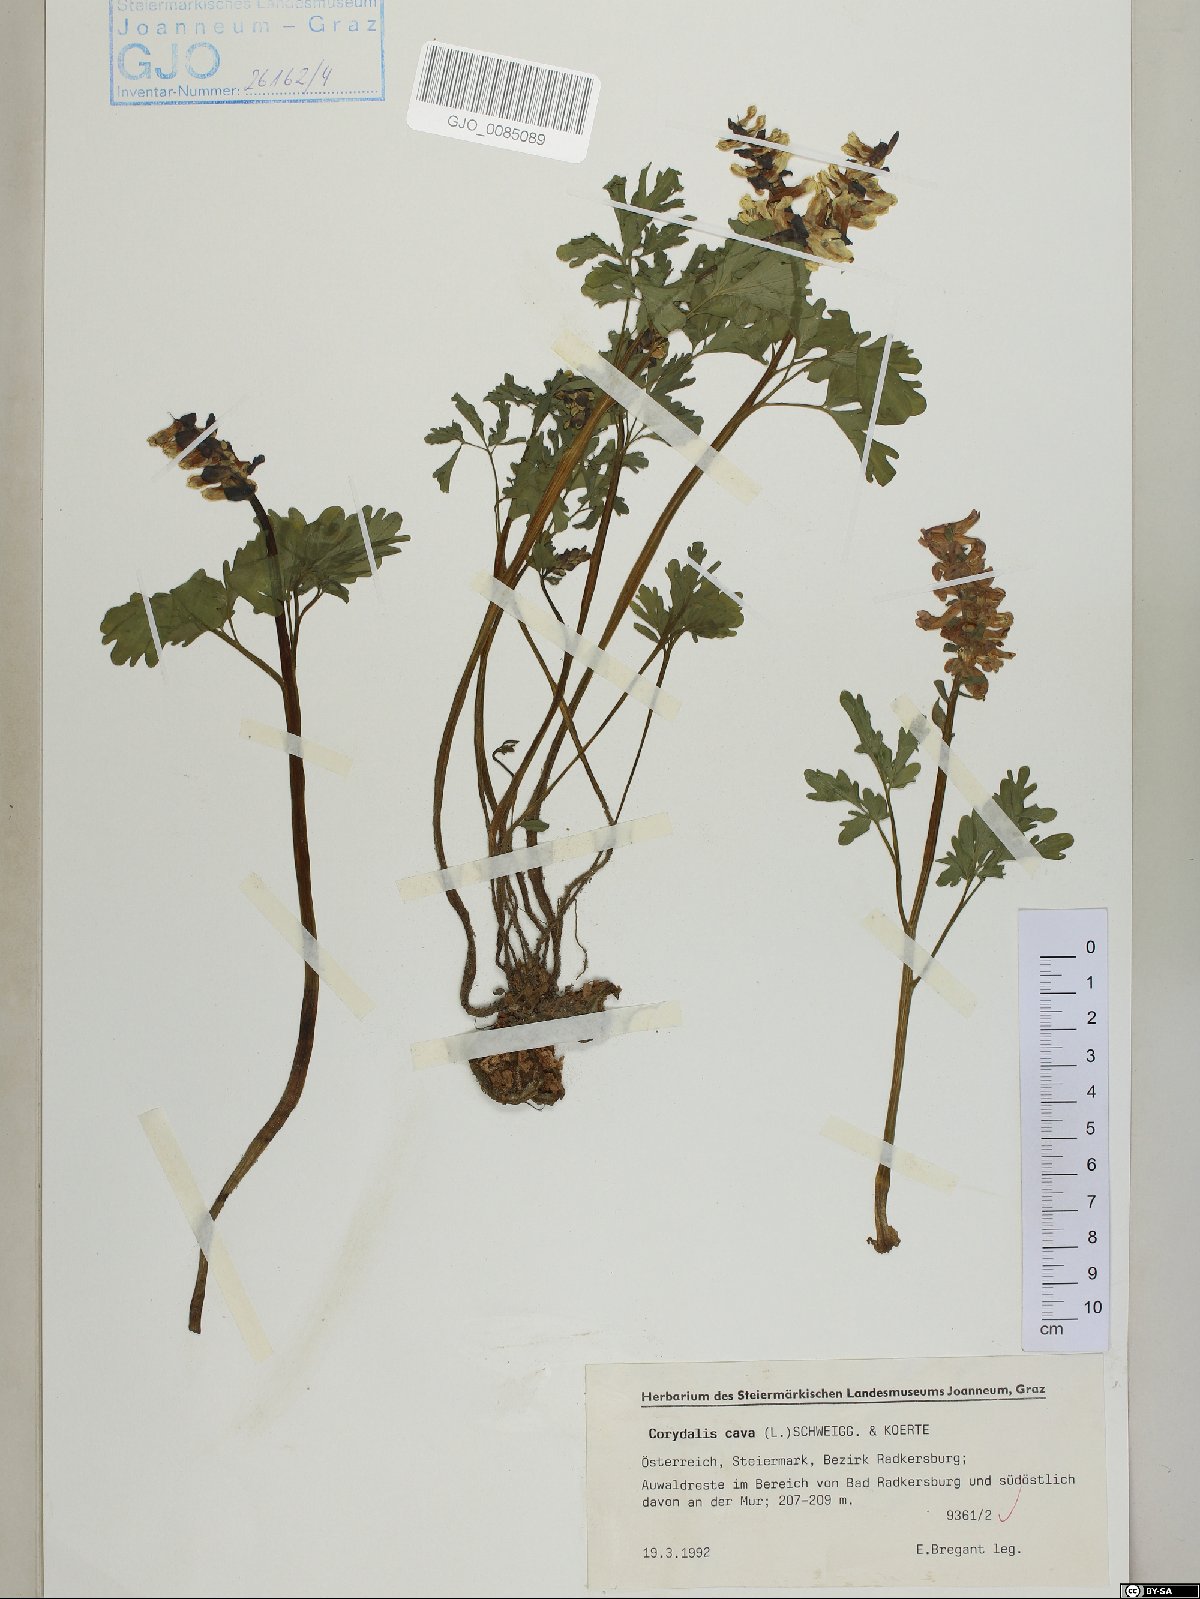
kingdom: Plantae
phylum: Tracheophyta
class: Magnoliopsida
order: Ranunculales
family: Papaveraceae
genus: Corydalis
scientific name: Corydalis cava
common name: Hollowroot
